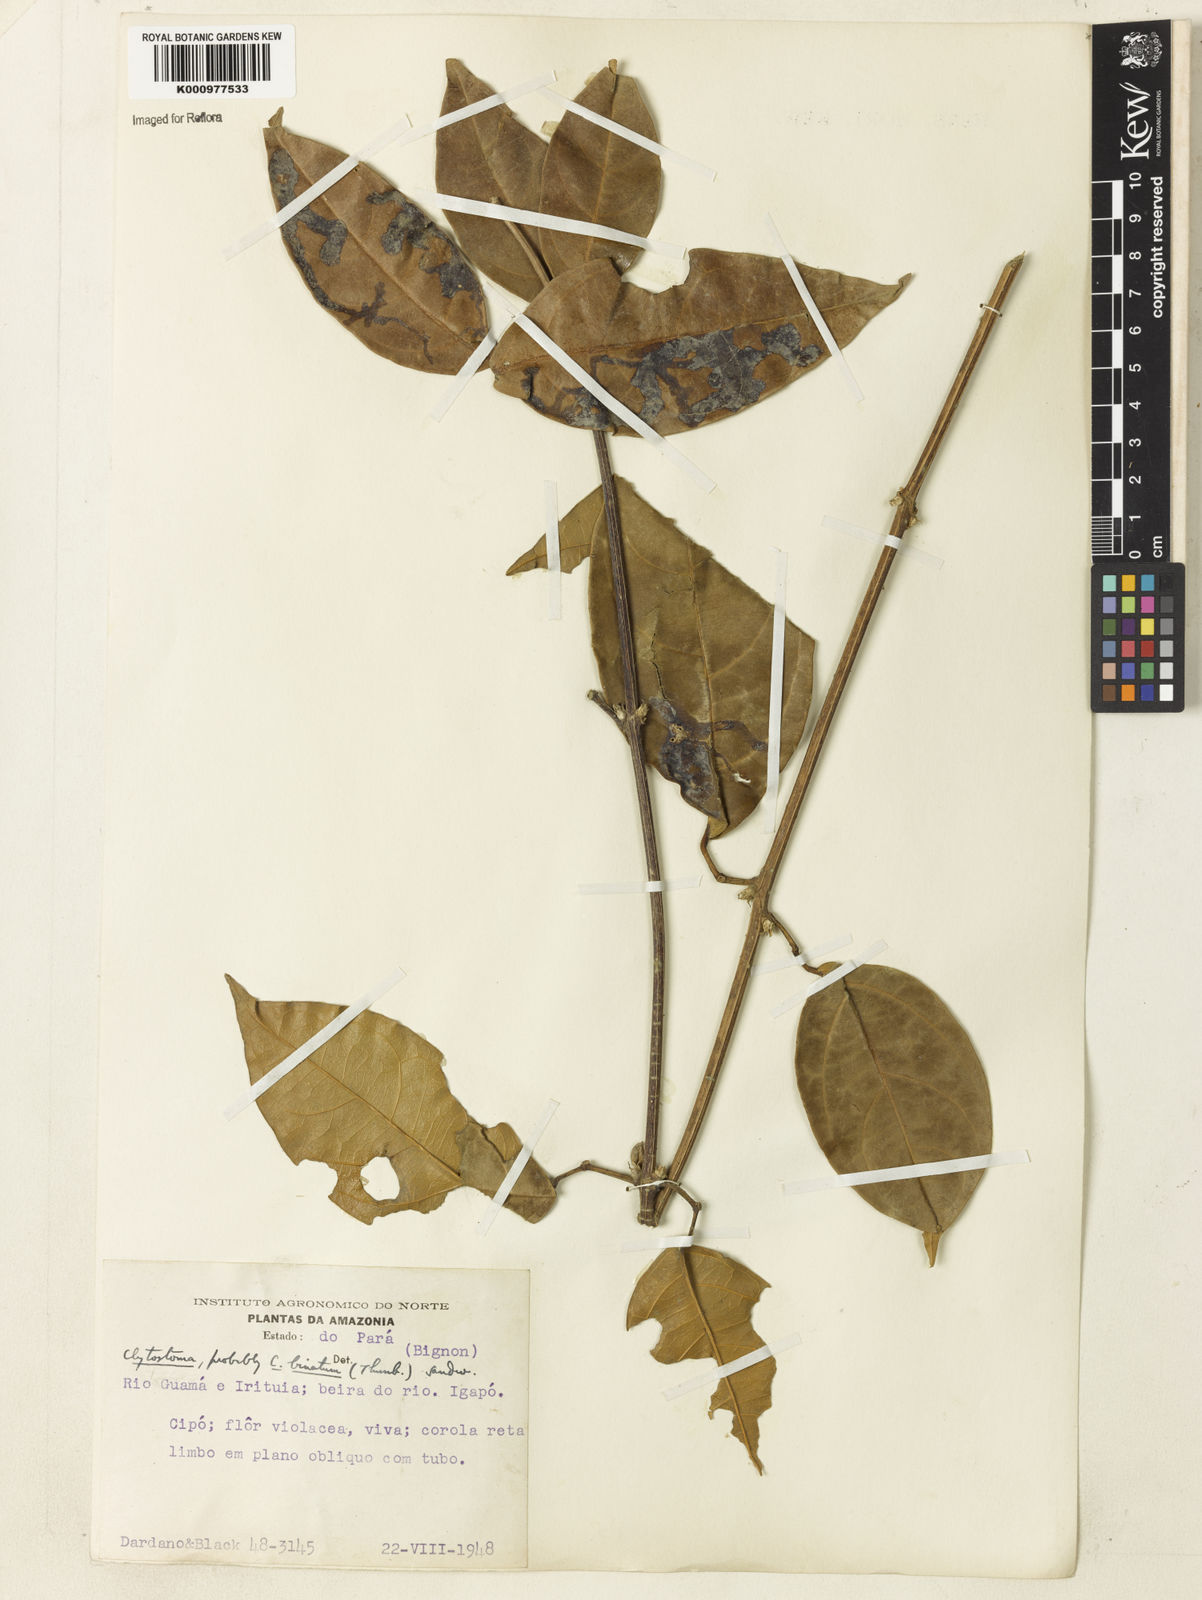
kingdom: Plantae
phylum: Tracheophyta
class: Magnoliopsida
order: Lamiales
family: Bignoniaceae
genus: Bignonia
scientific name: Bignonia binata
